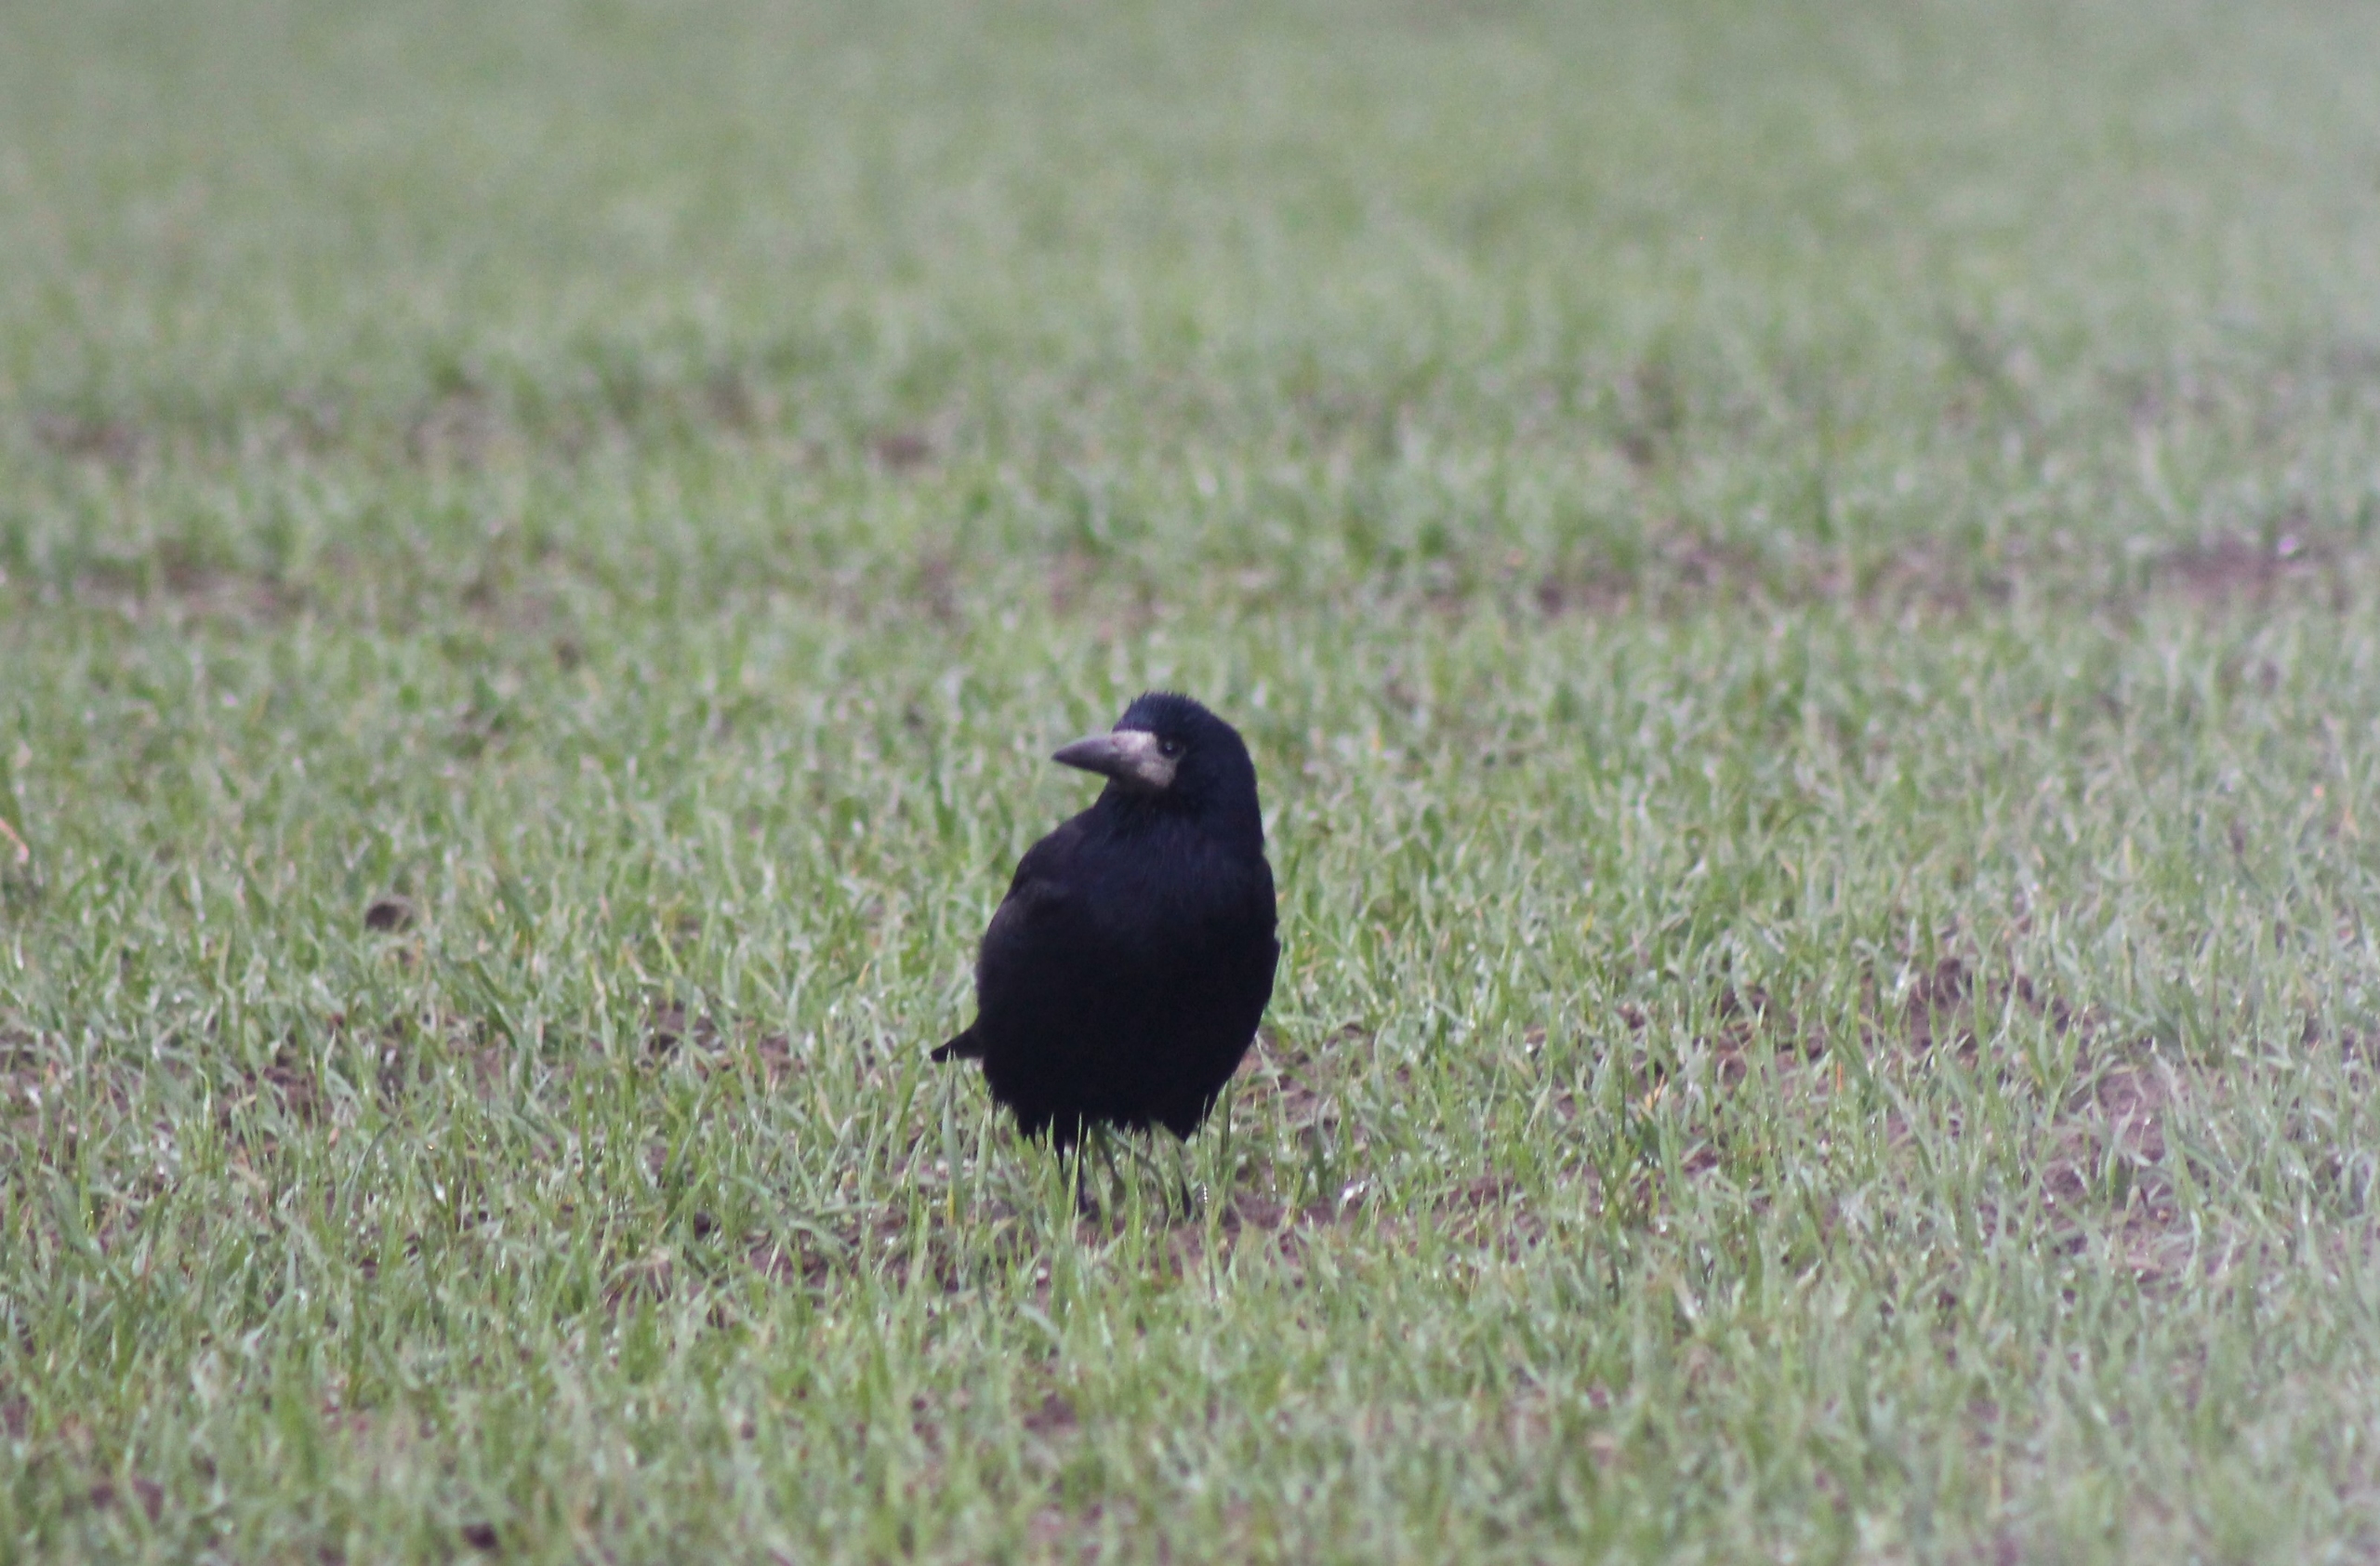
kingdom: Animalia
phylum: Chordata
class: Aves
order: Passeriformes
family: Corvidae
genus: Corvus
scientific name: Corvus frugilegus
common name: Råge
